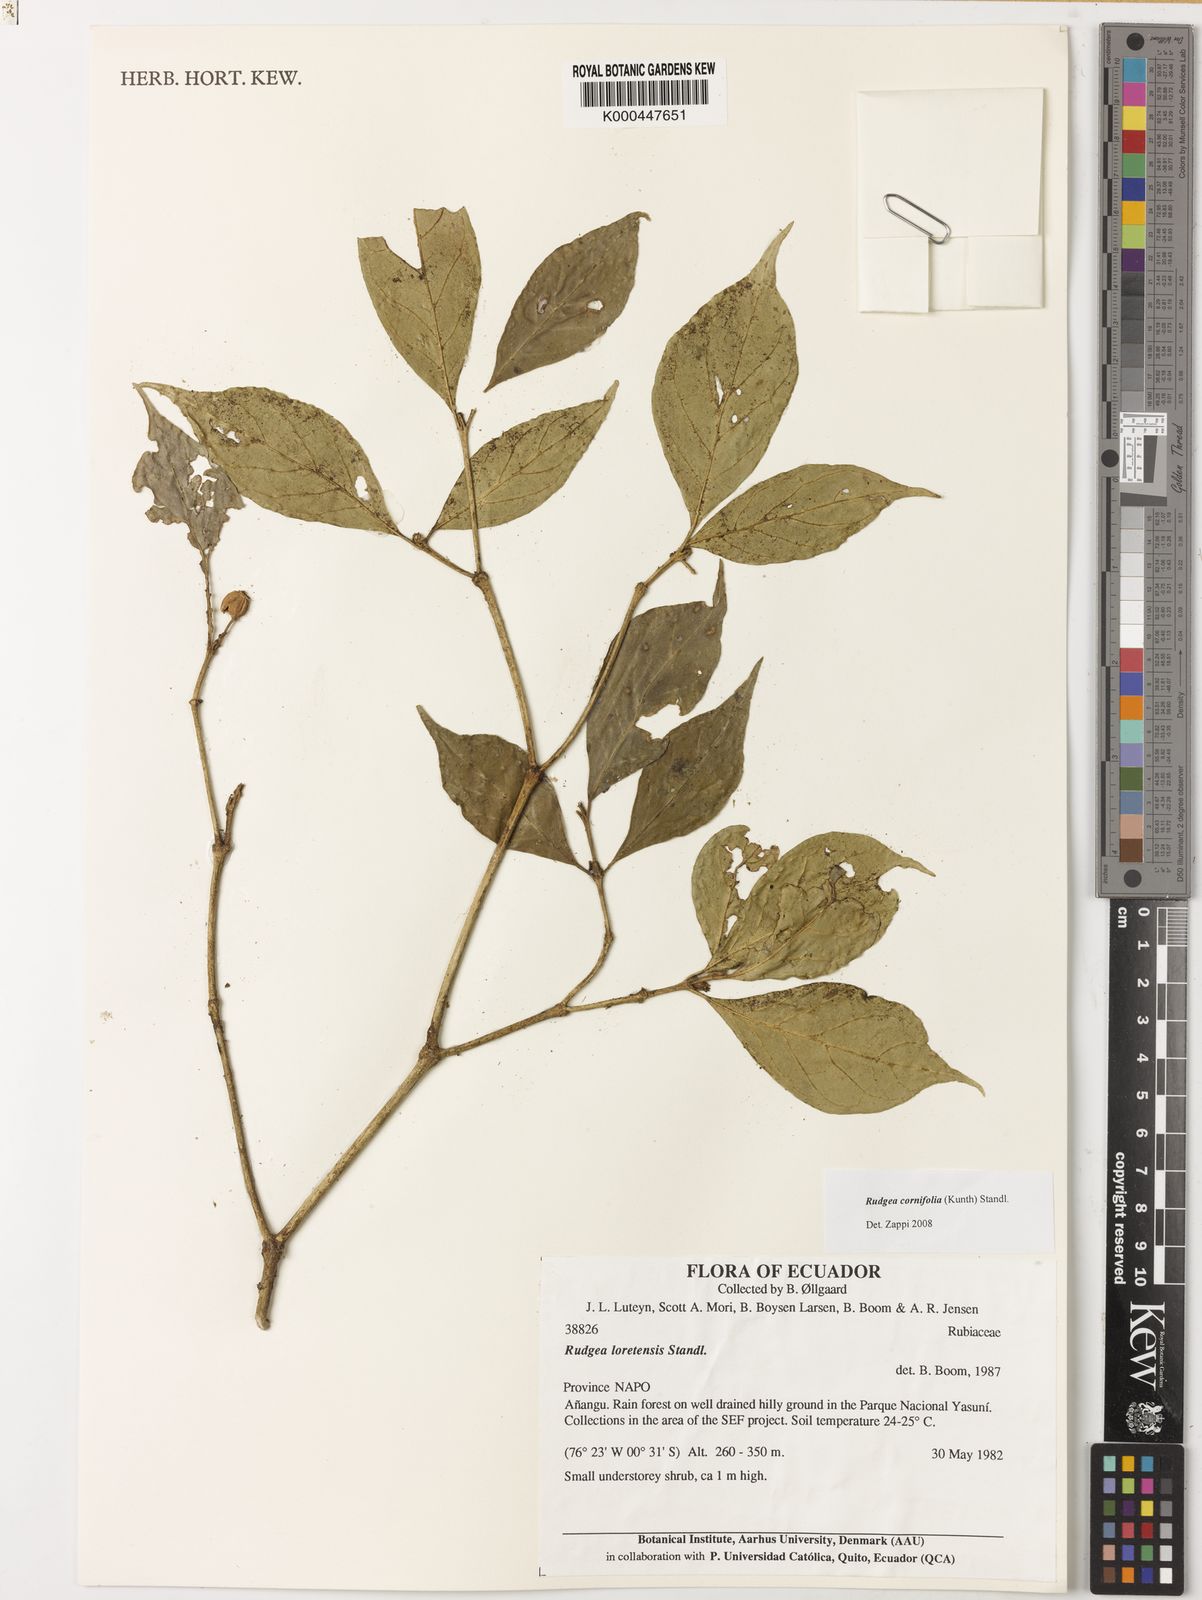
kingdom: Plantae
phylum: Tracheophyta
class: Magnoliopsida
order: Gentianales
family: Rubiaceae
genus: Rudgea
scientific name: Rudgea cornifolia
